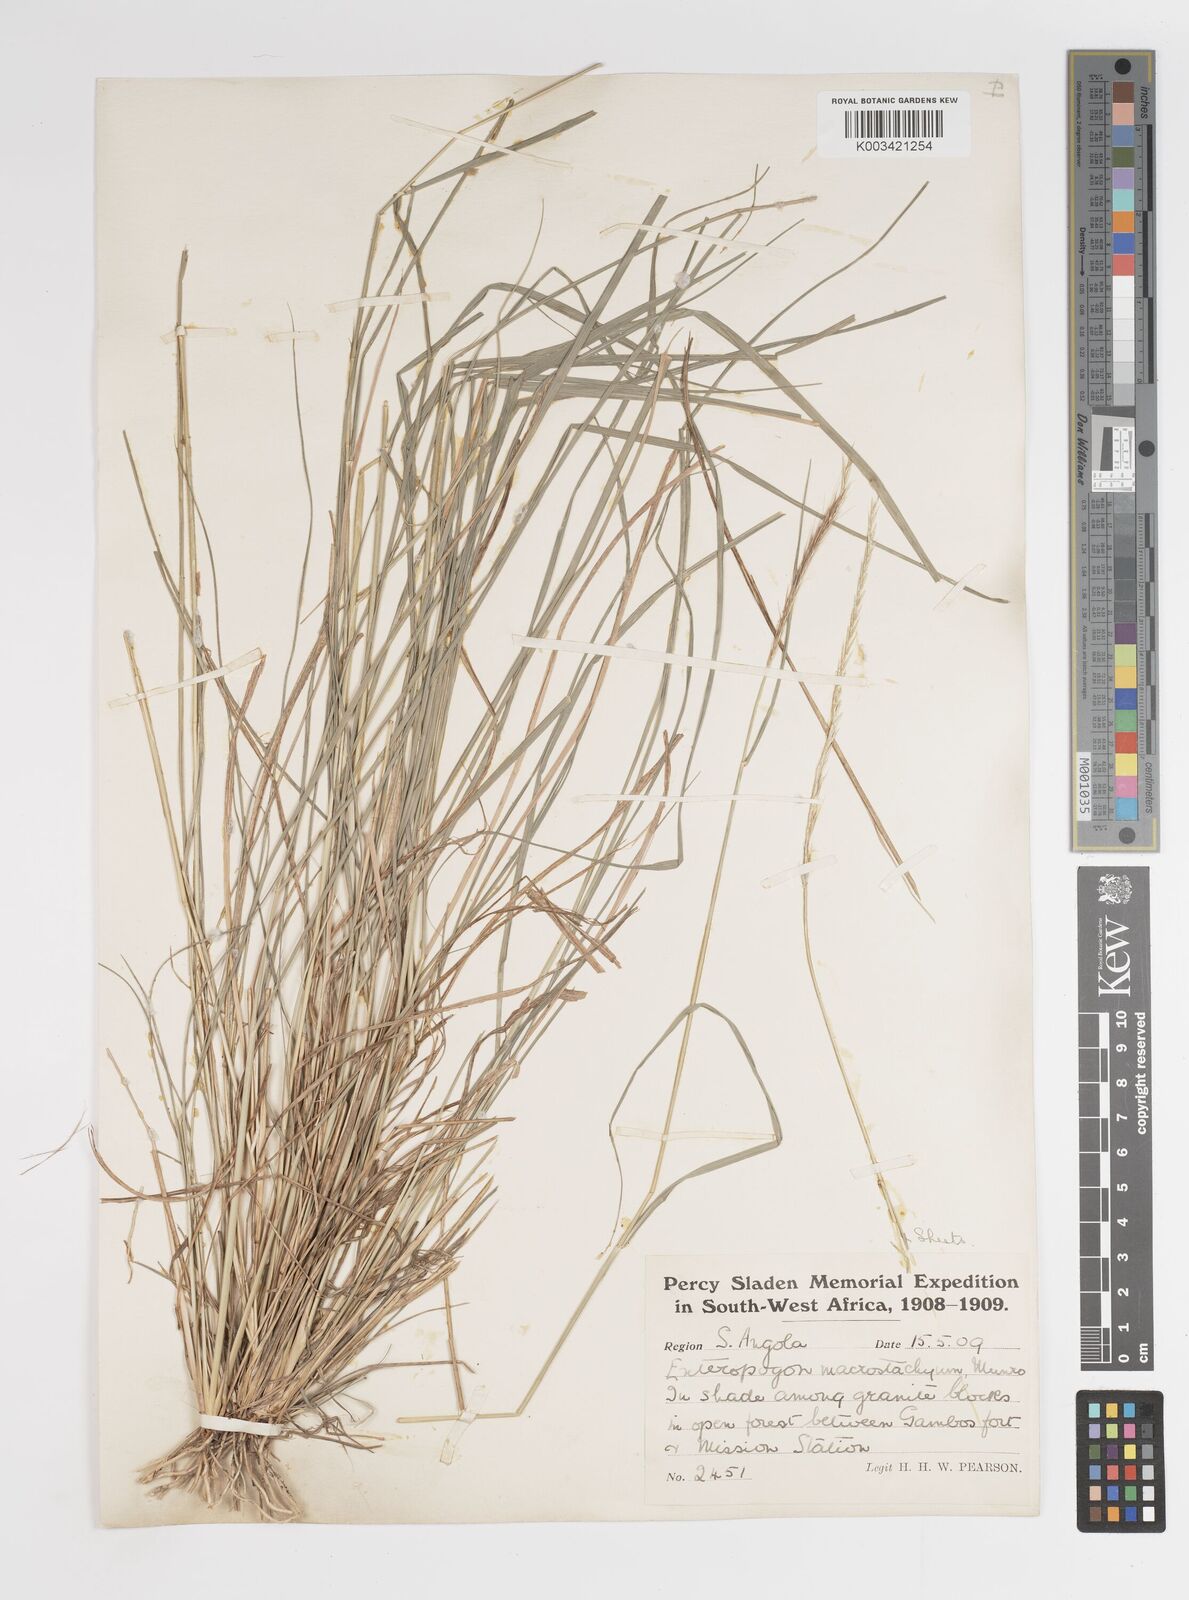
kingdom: Plantae
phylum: Tracheophyta
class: Liliopsida
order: Poales
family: Poaceae
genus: Enteropogon
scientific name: Enteropogon macrostachyus
